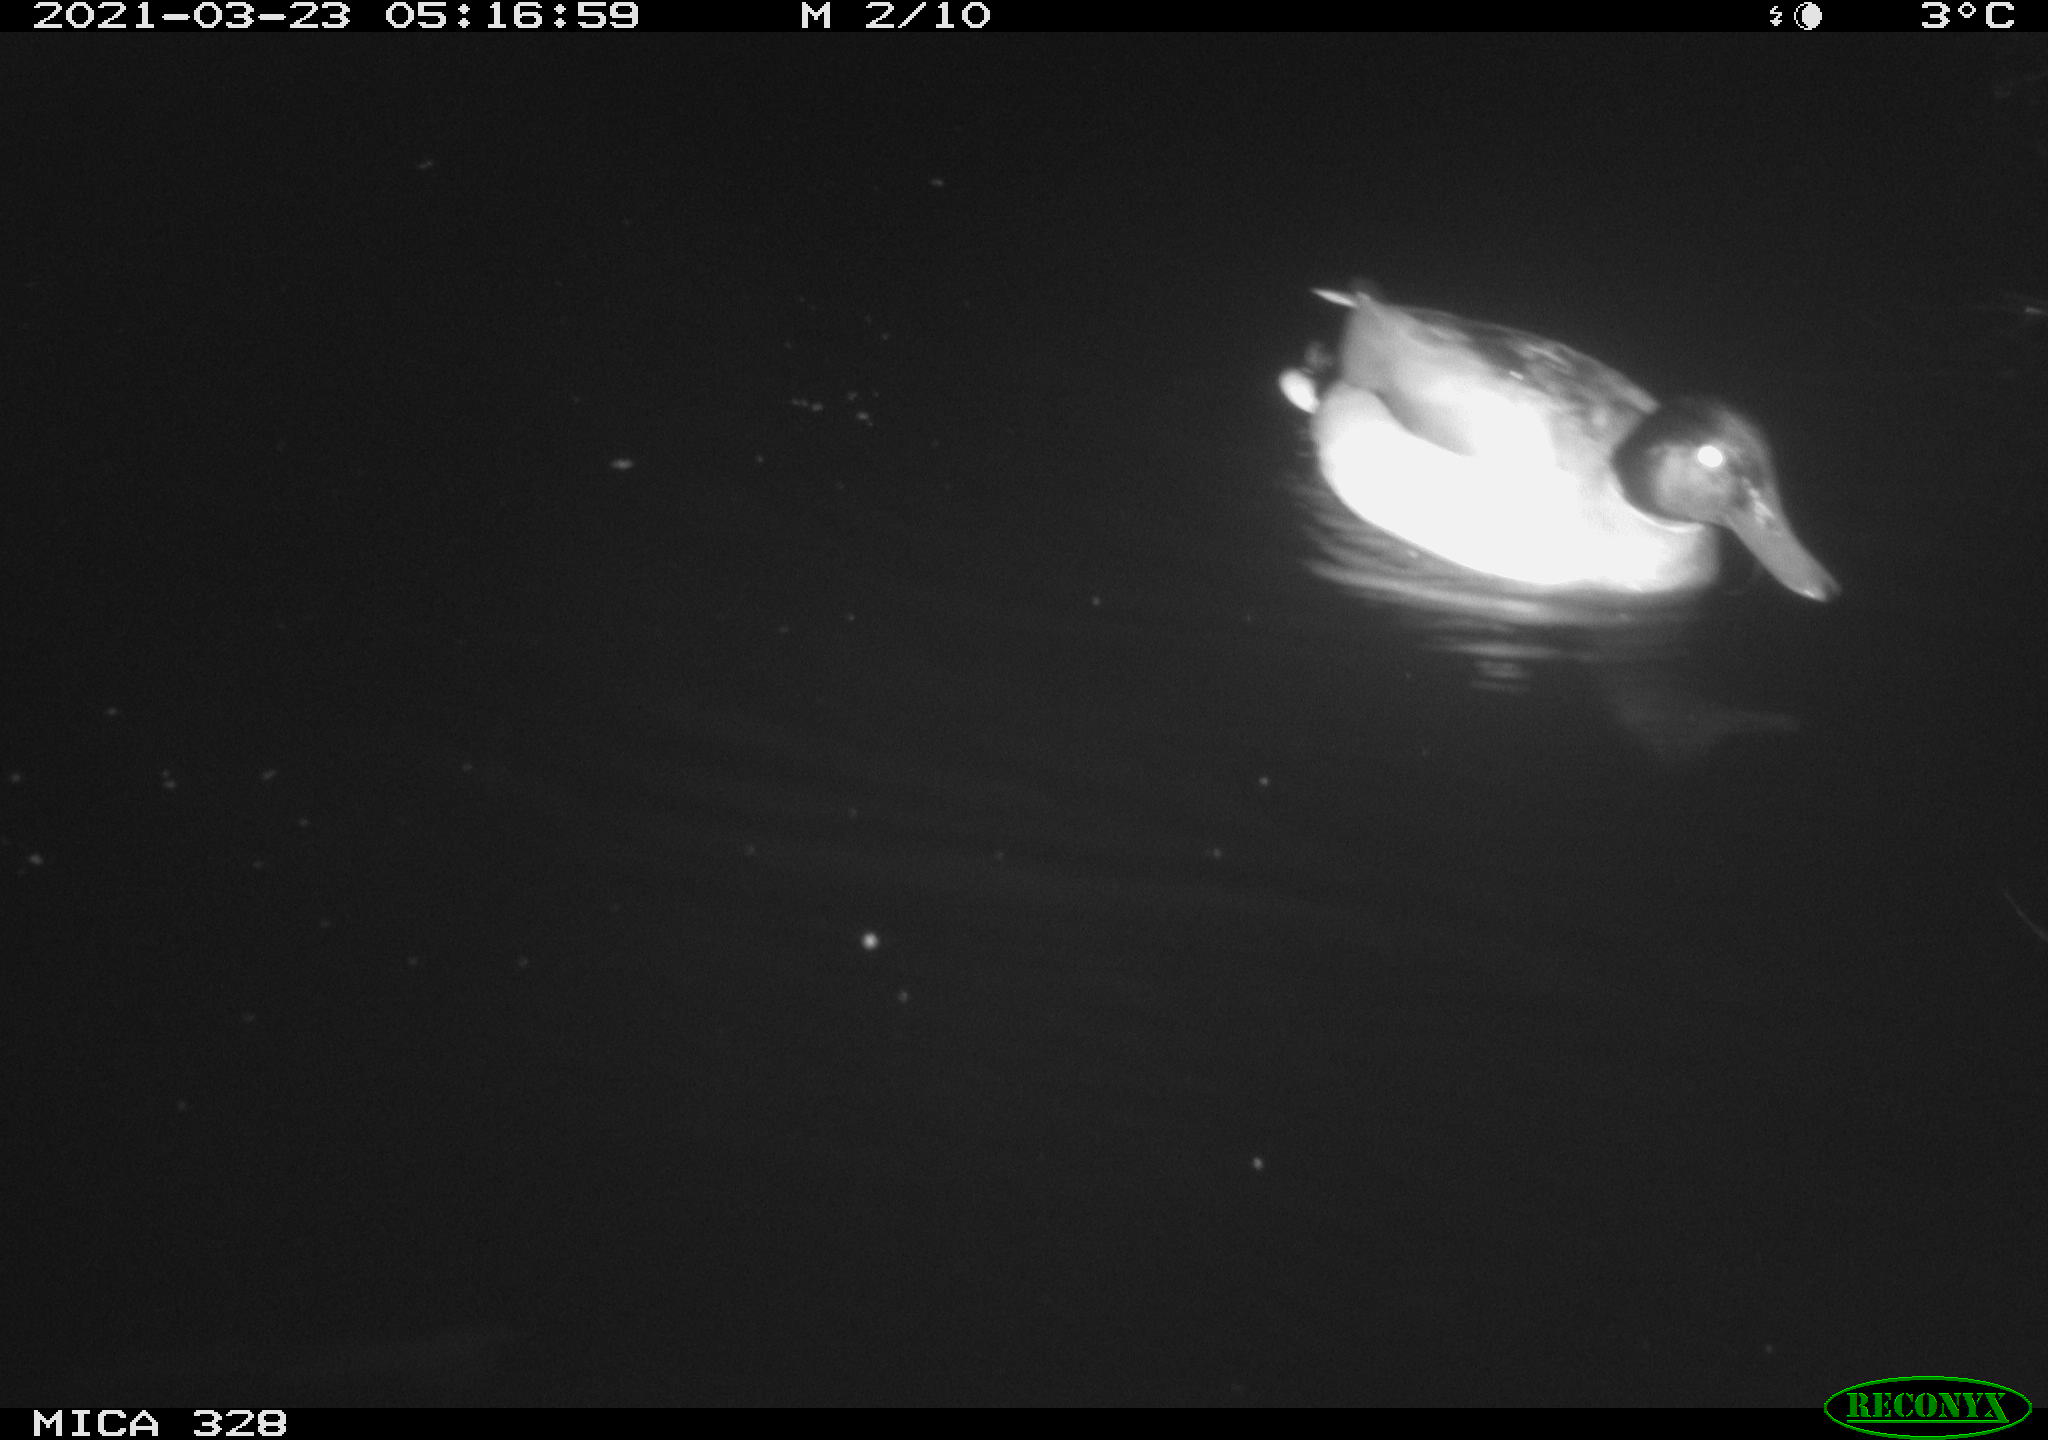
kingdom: Animalia
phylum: Chordata
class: Aves
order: Anseriformes
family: Anatidae
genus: Anas
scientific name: Anas platyrhynchos
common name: Mallard
